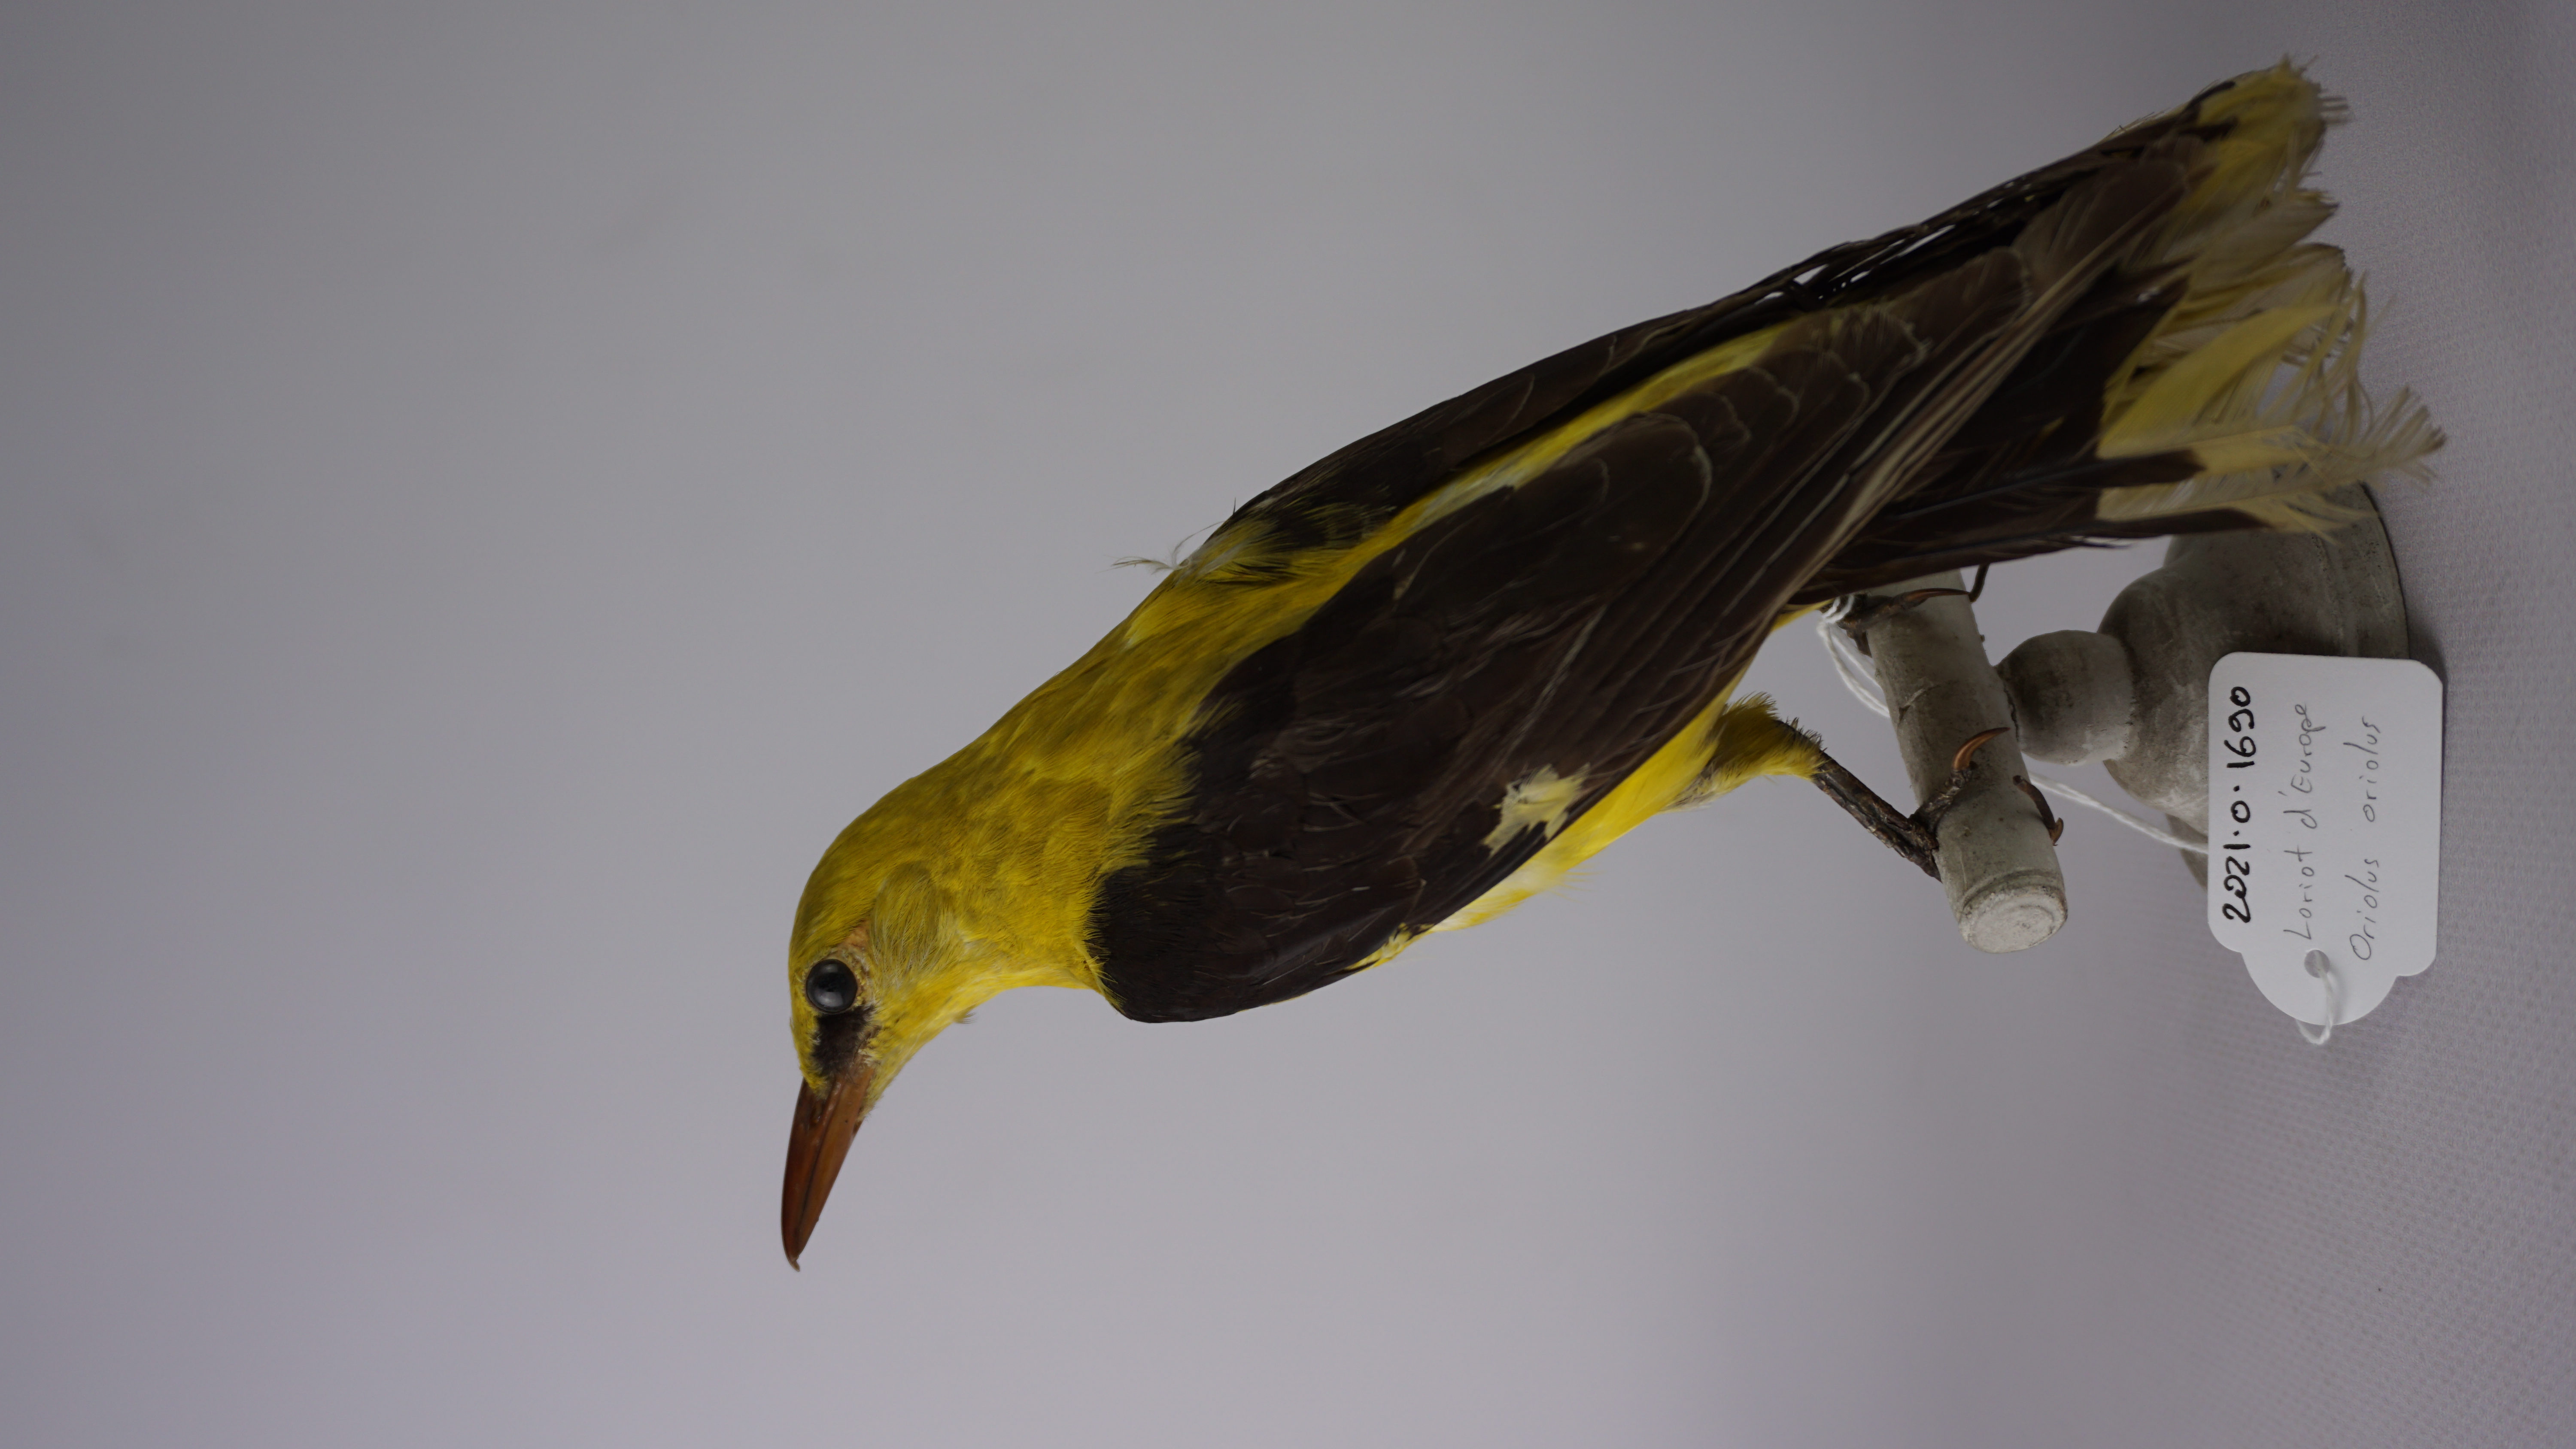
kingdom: Animalia
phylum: Chordata
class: Aves
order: Passeriformes
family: Oriolidae
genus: Oriolus
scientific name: Oriolus oriolus
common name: Eurasian golden oriole
